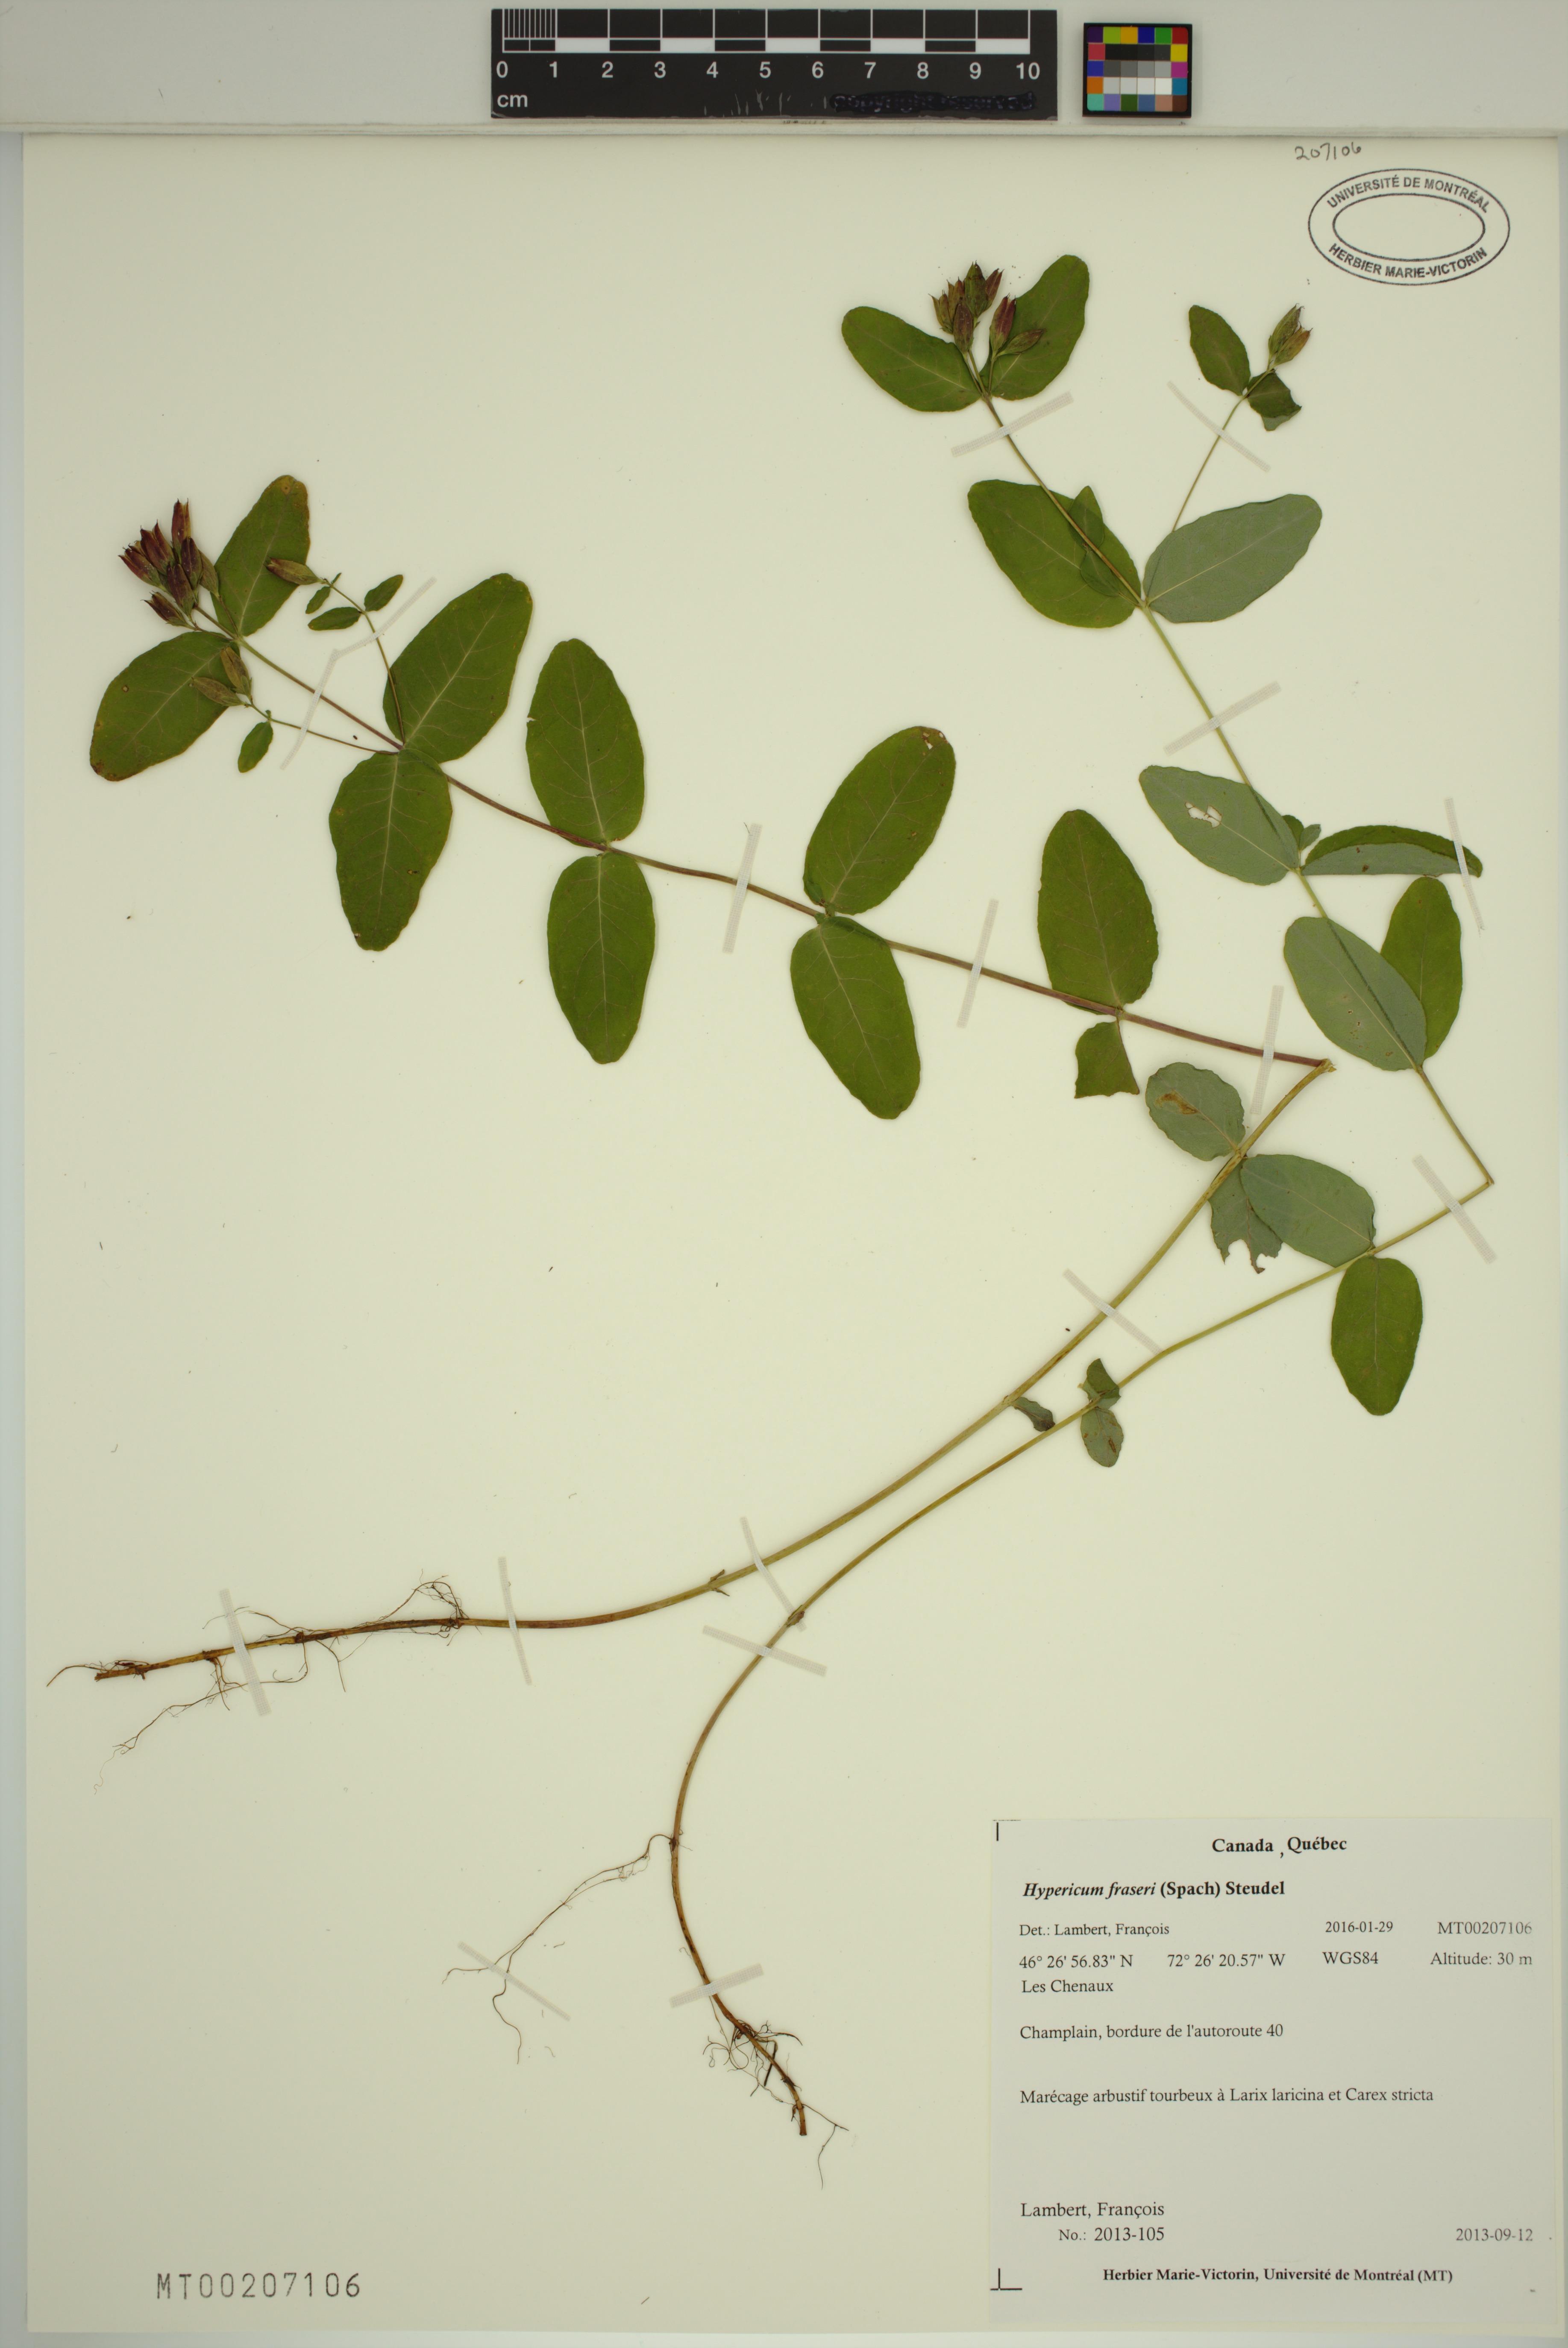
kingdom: Plantae
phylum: Tracheophyta
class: Magnoliopsida
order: Malpighiales
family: Hypericaceae
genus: Triadenum
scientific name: Triadenum fraseri
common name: Fraser's marsh st. johnswort
